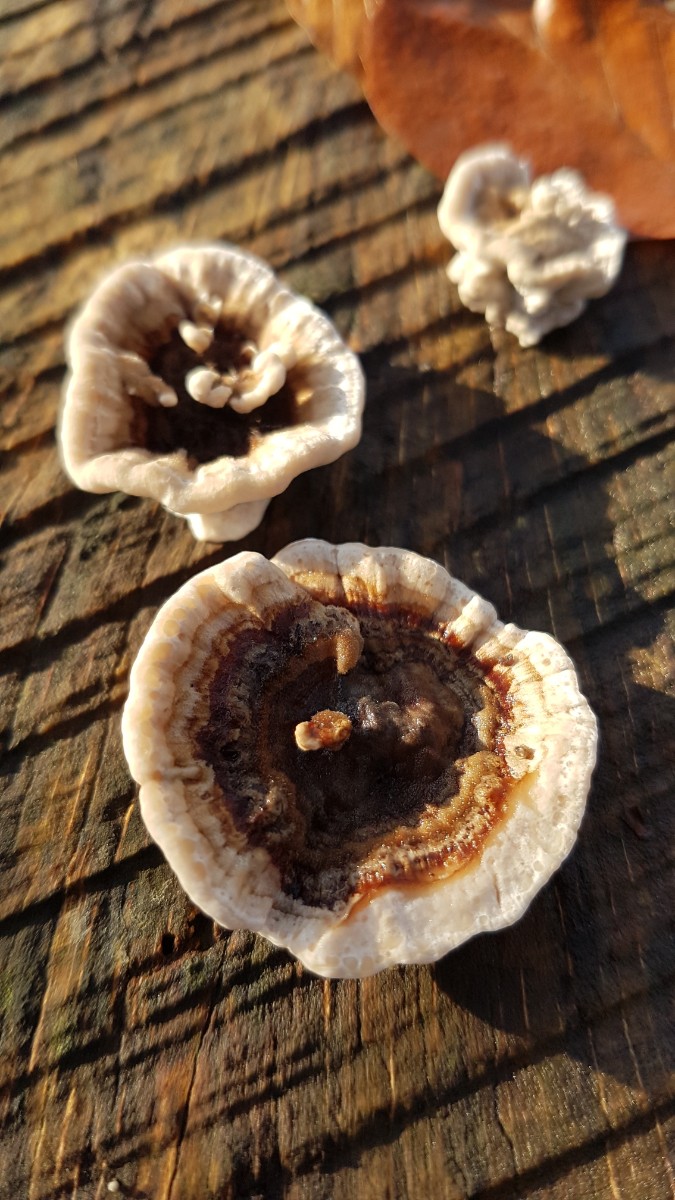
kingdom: Fungi
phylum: Basidiomycota
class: Agaricomycetes
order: Polyporales
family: Polyporaceae
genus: Trametes
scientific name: Trametes versicolor
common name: broget læderporesvamp
